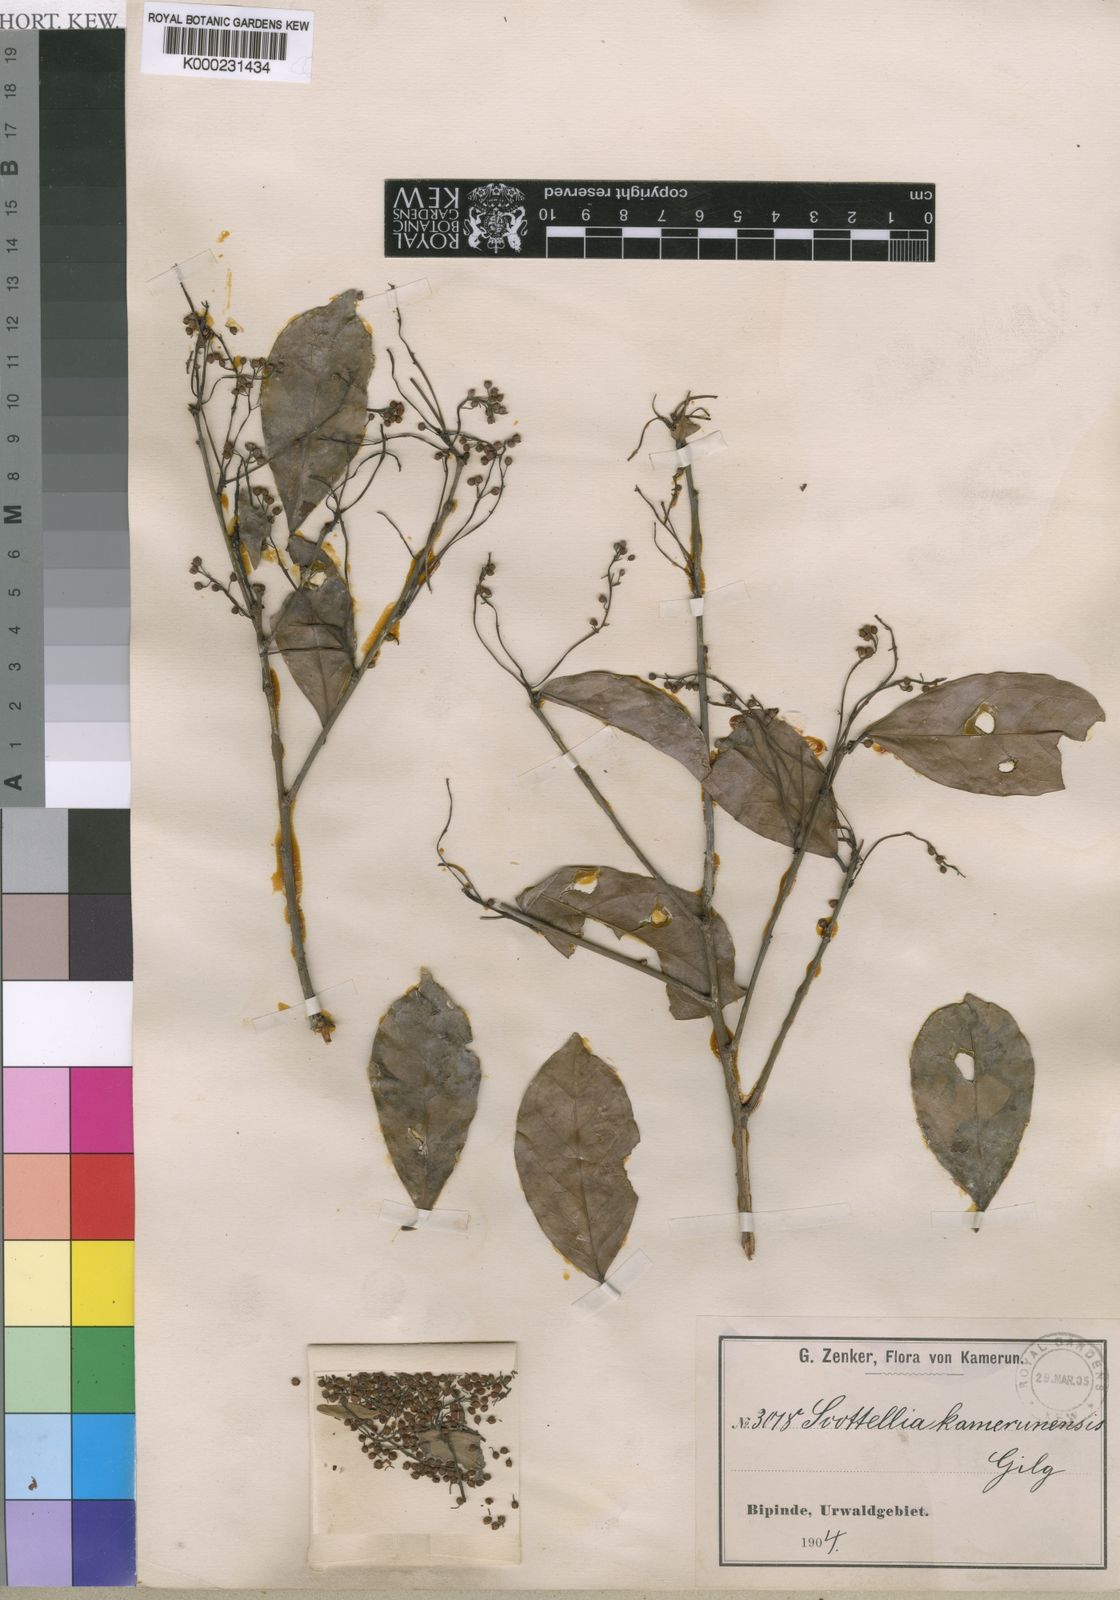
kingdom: Plantae
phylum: Tracheophyta
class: Magnoliopsida
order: Malpighiales
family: Achariaceae
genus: Scottellia
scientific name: Scottellia klaineana
